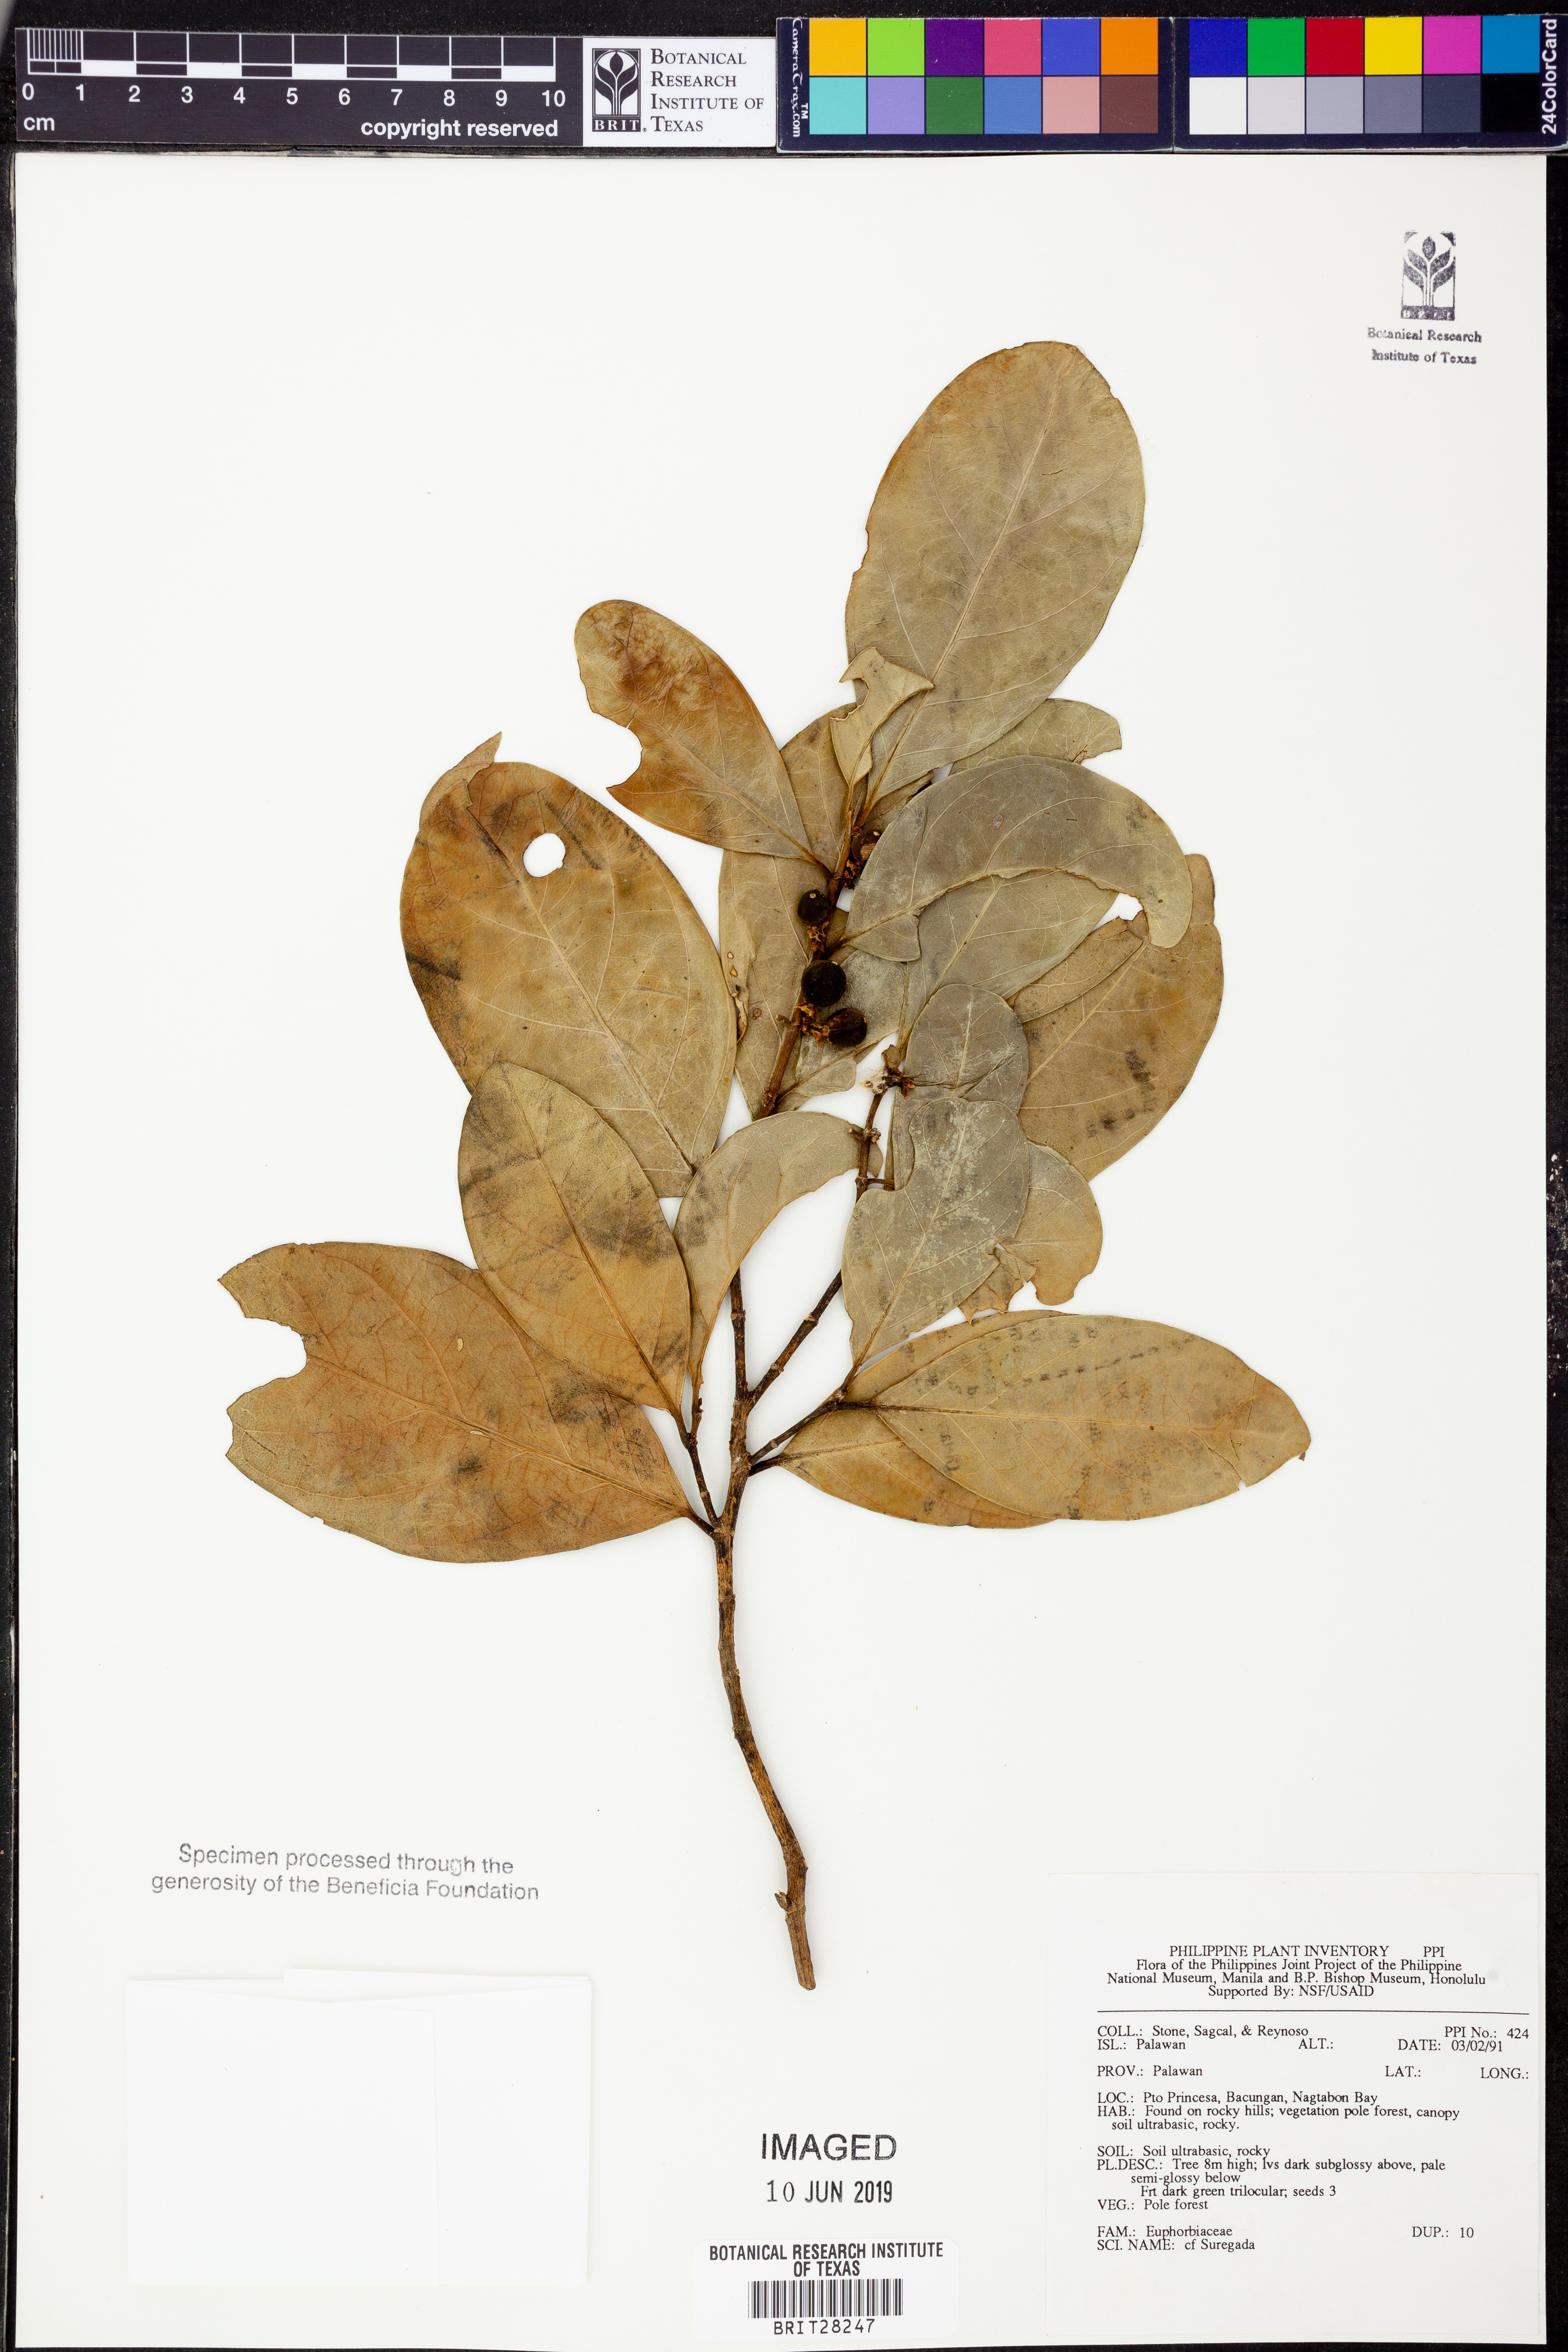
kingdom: Plantae
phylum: Tracheophyta
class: Magnoliopsida
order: Malpighiales
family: Euphorbiaceae
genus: Suregada
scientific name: Suregada
